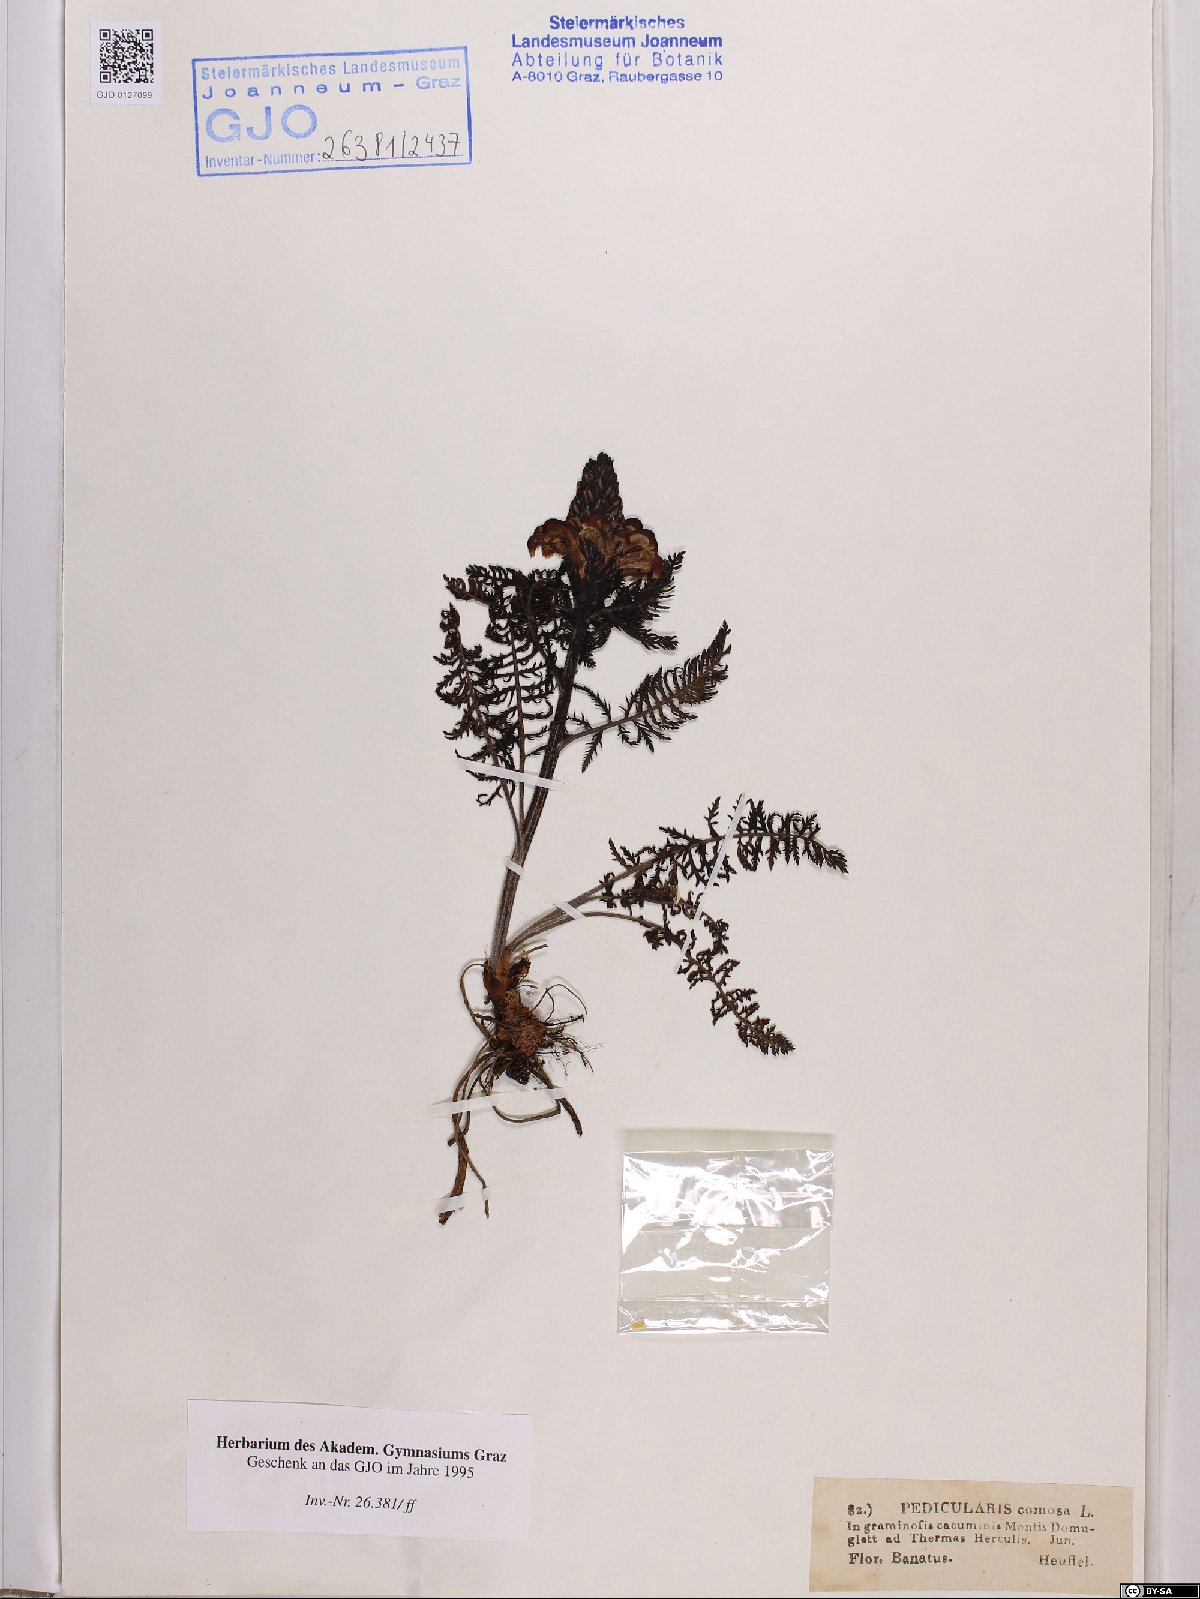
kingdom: Plantae
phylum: Tracheophyta
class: Magnoliopsida
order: Lamiales
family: Orobanchaceae
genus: Pedicularis
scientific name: Pedicularis comosa
